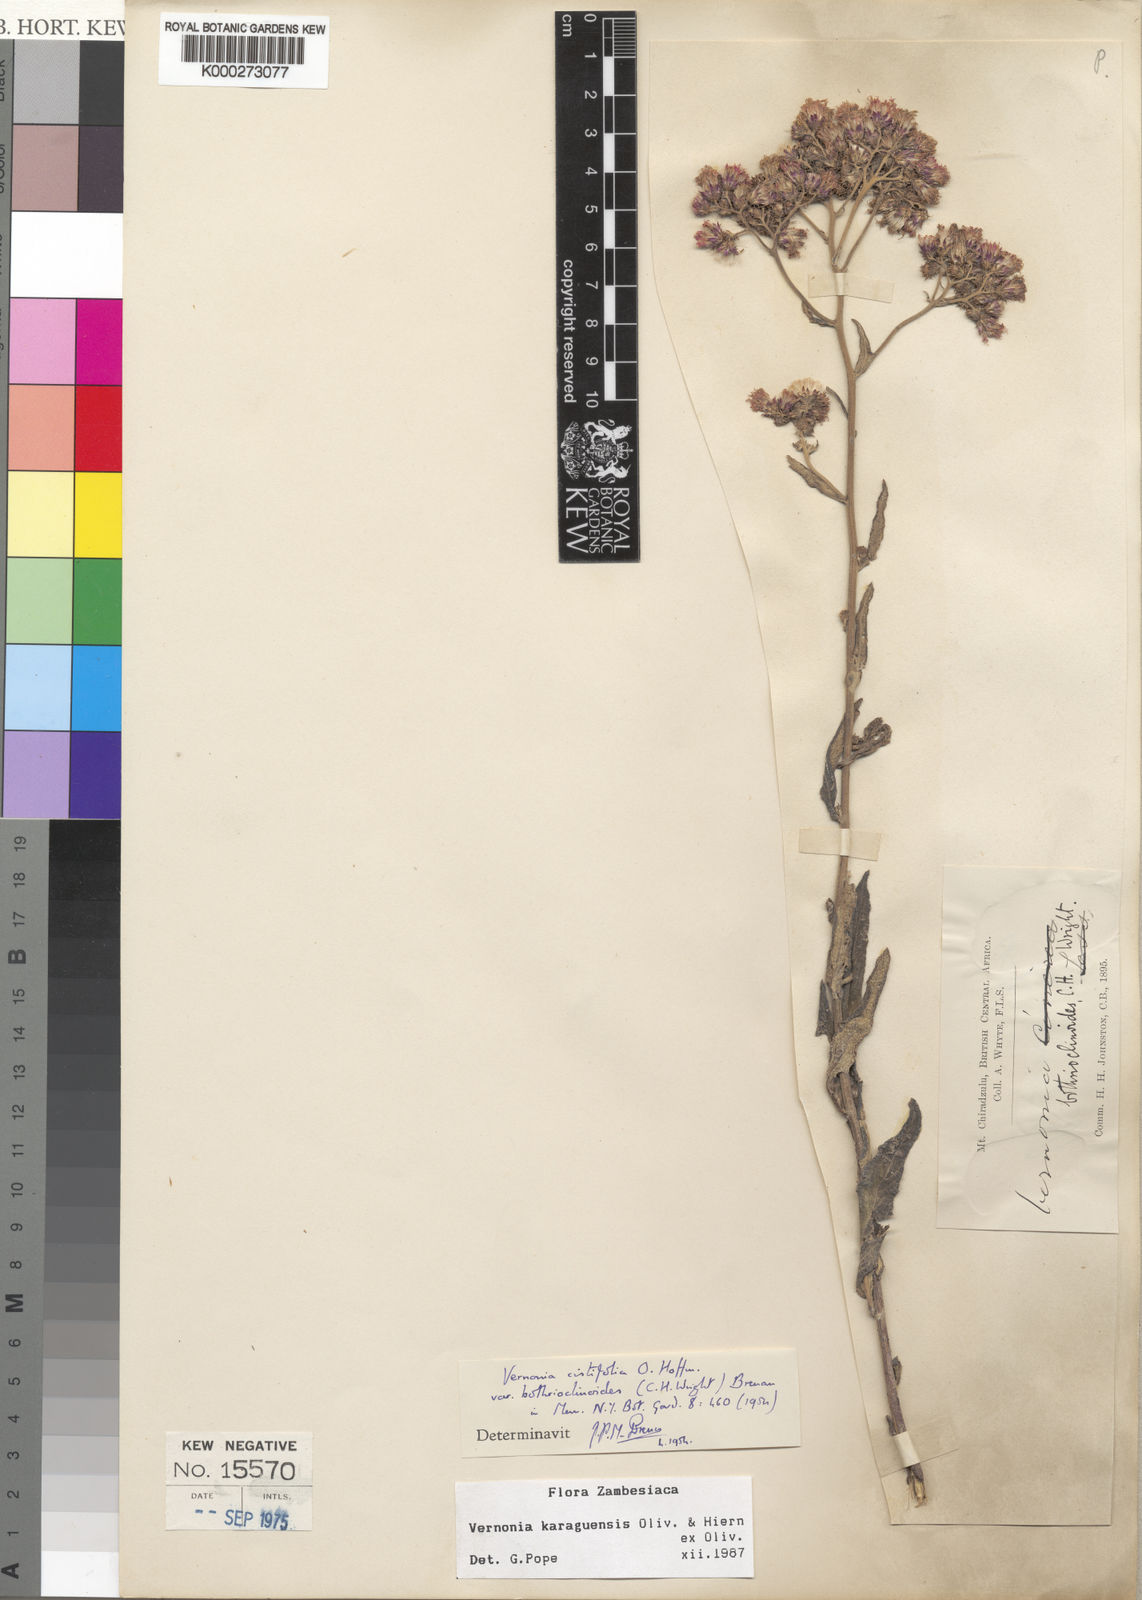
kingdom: Plantae
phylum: Tracheophyta
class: Magnoliopsida
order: Asterales
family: Asteraceae
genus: Orbivestus
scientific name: Orbivestus karaguensis
